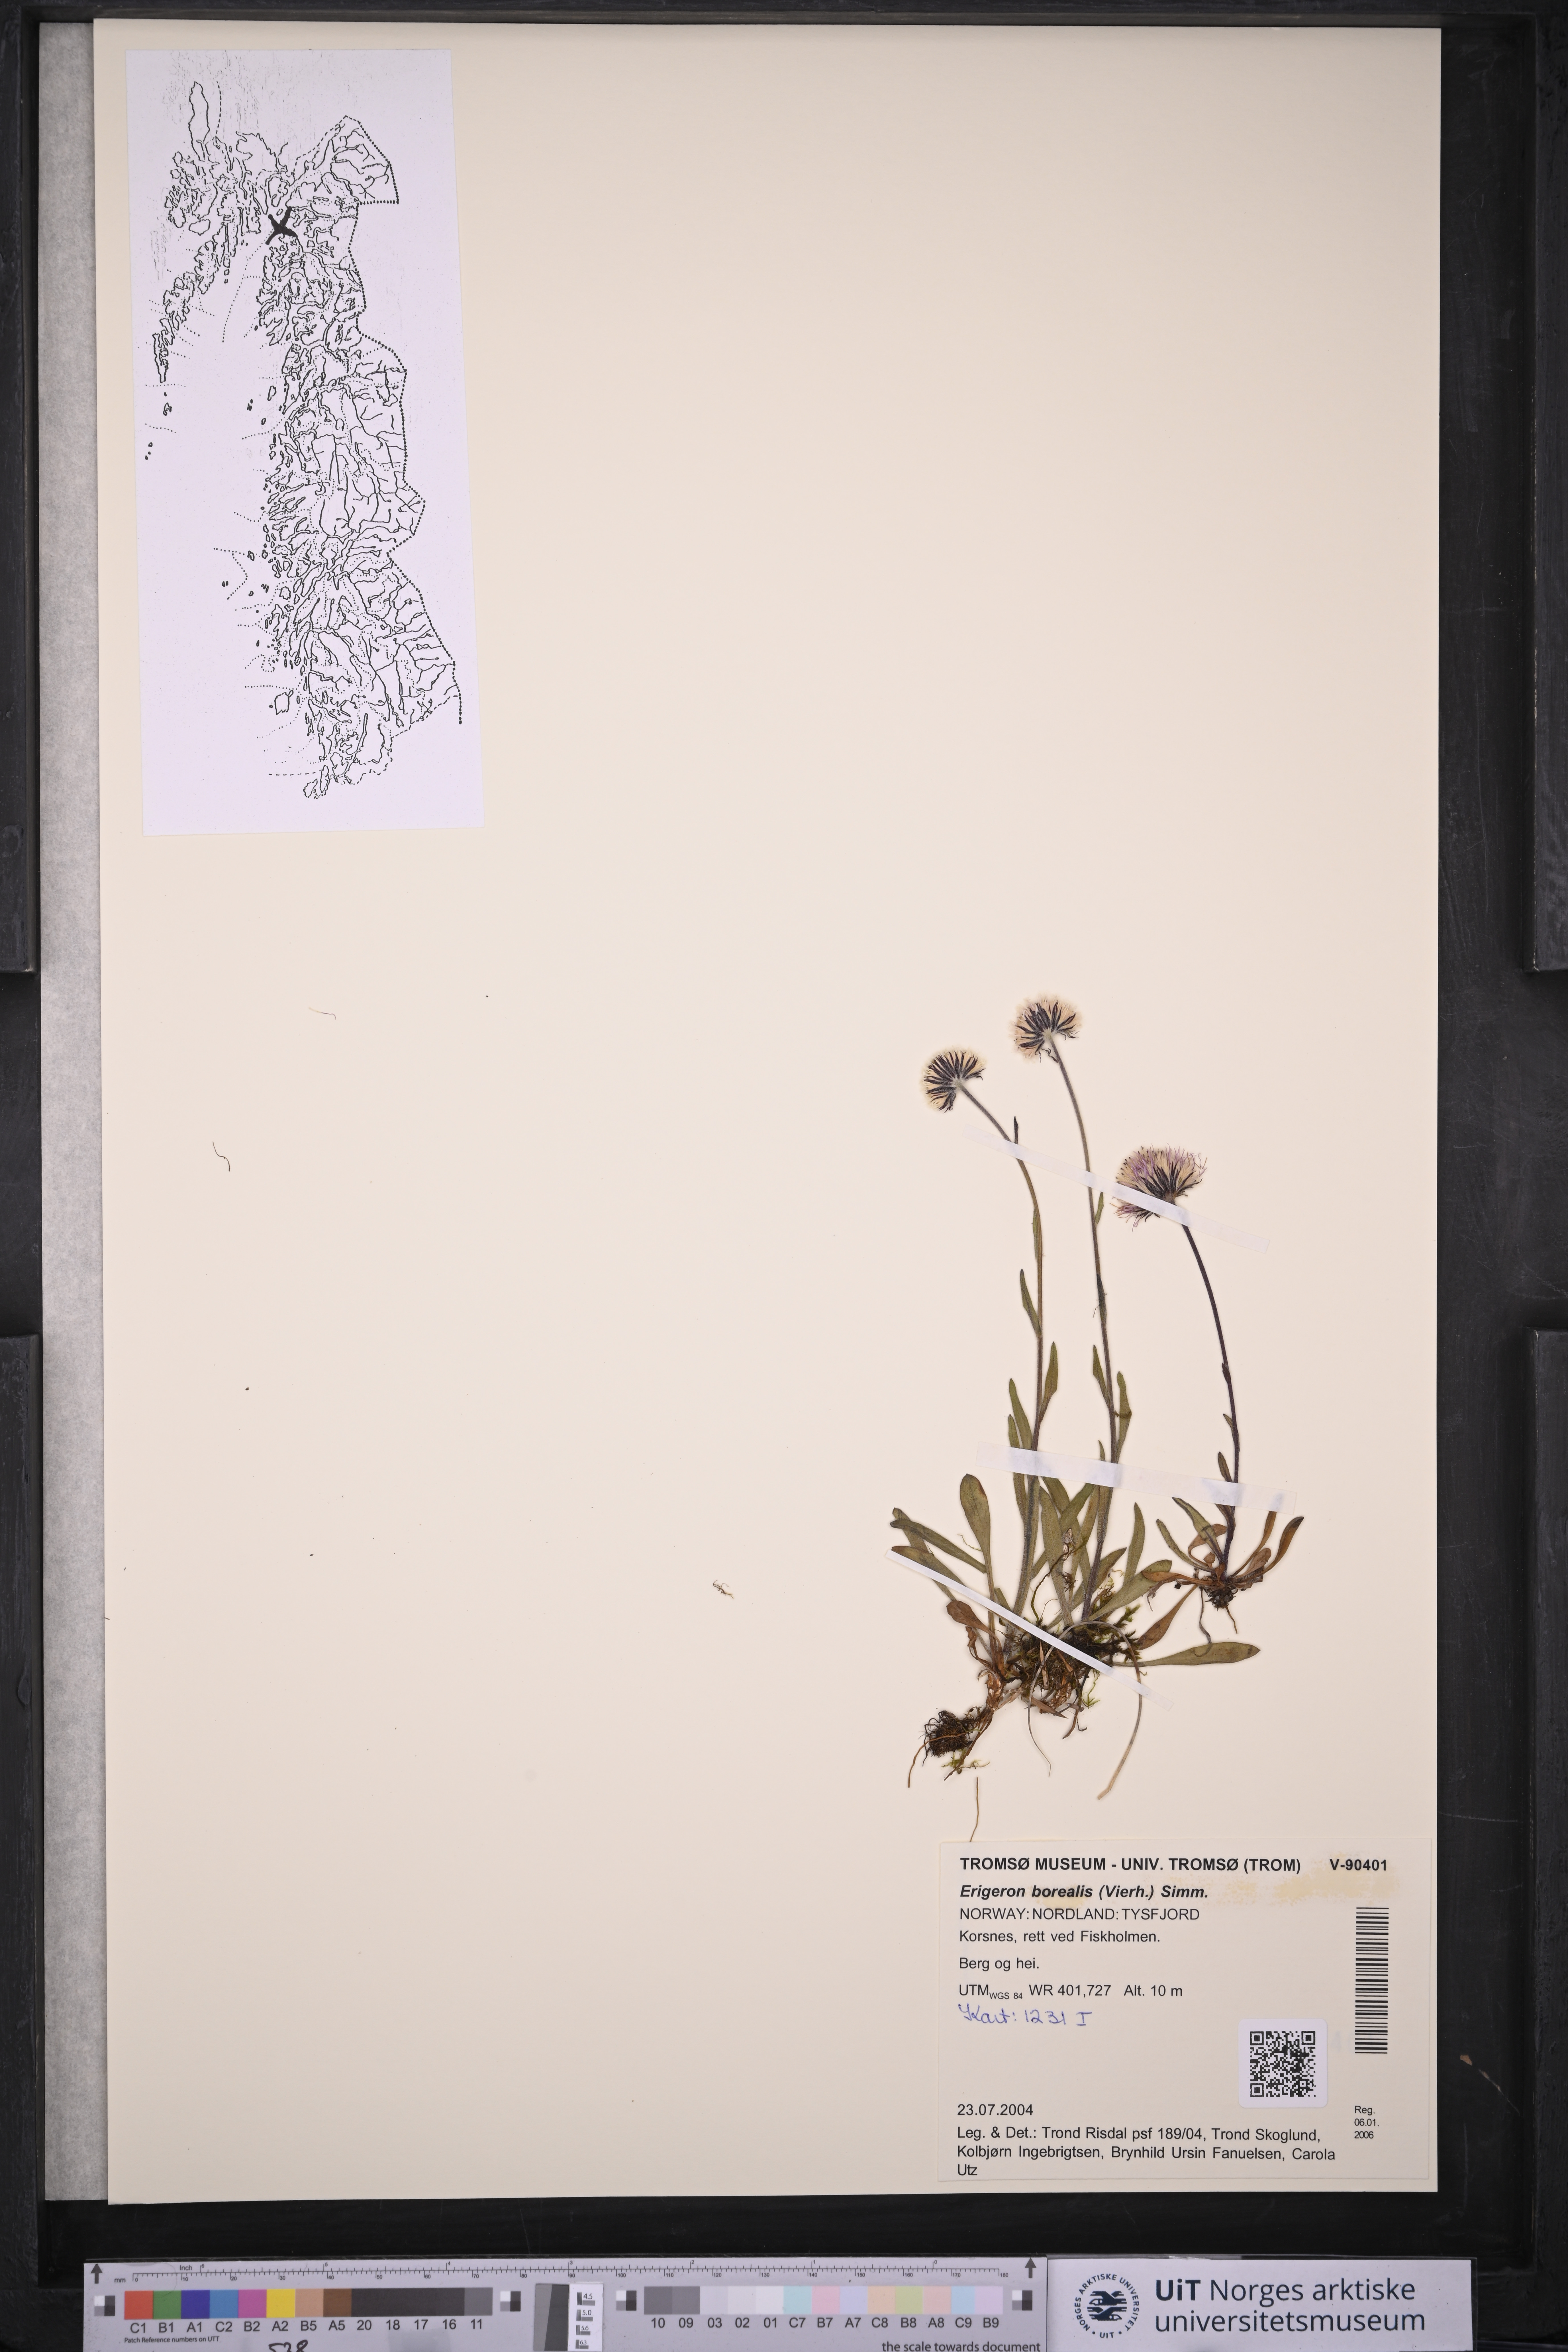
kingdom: Plantae
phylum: Tracheophyta
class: Magnoliopsida
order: Asterales
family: Asteraceae
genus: Erigeron
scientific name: Erigeron borealis
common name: Alpine fleabane
